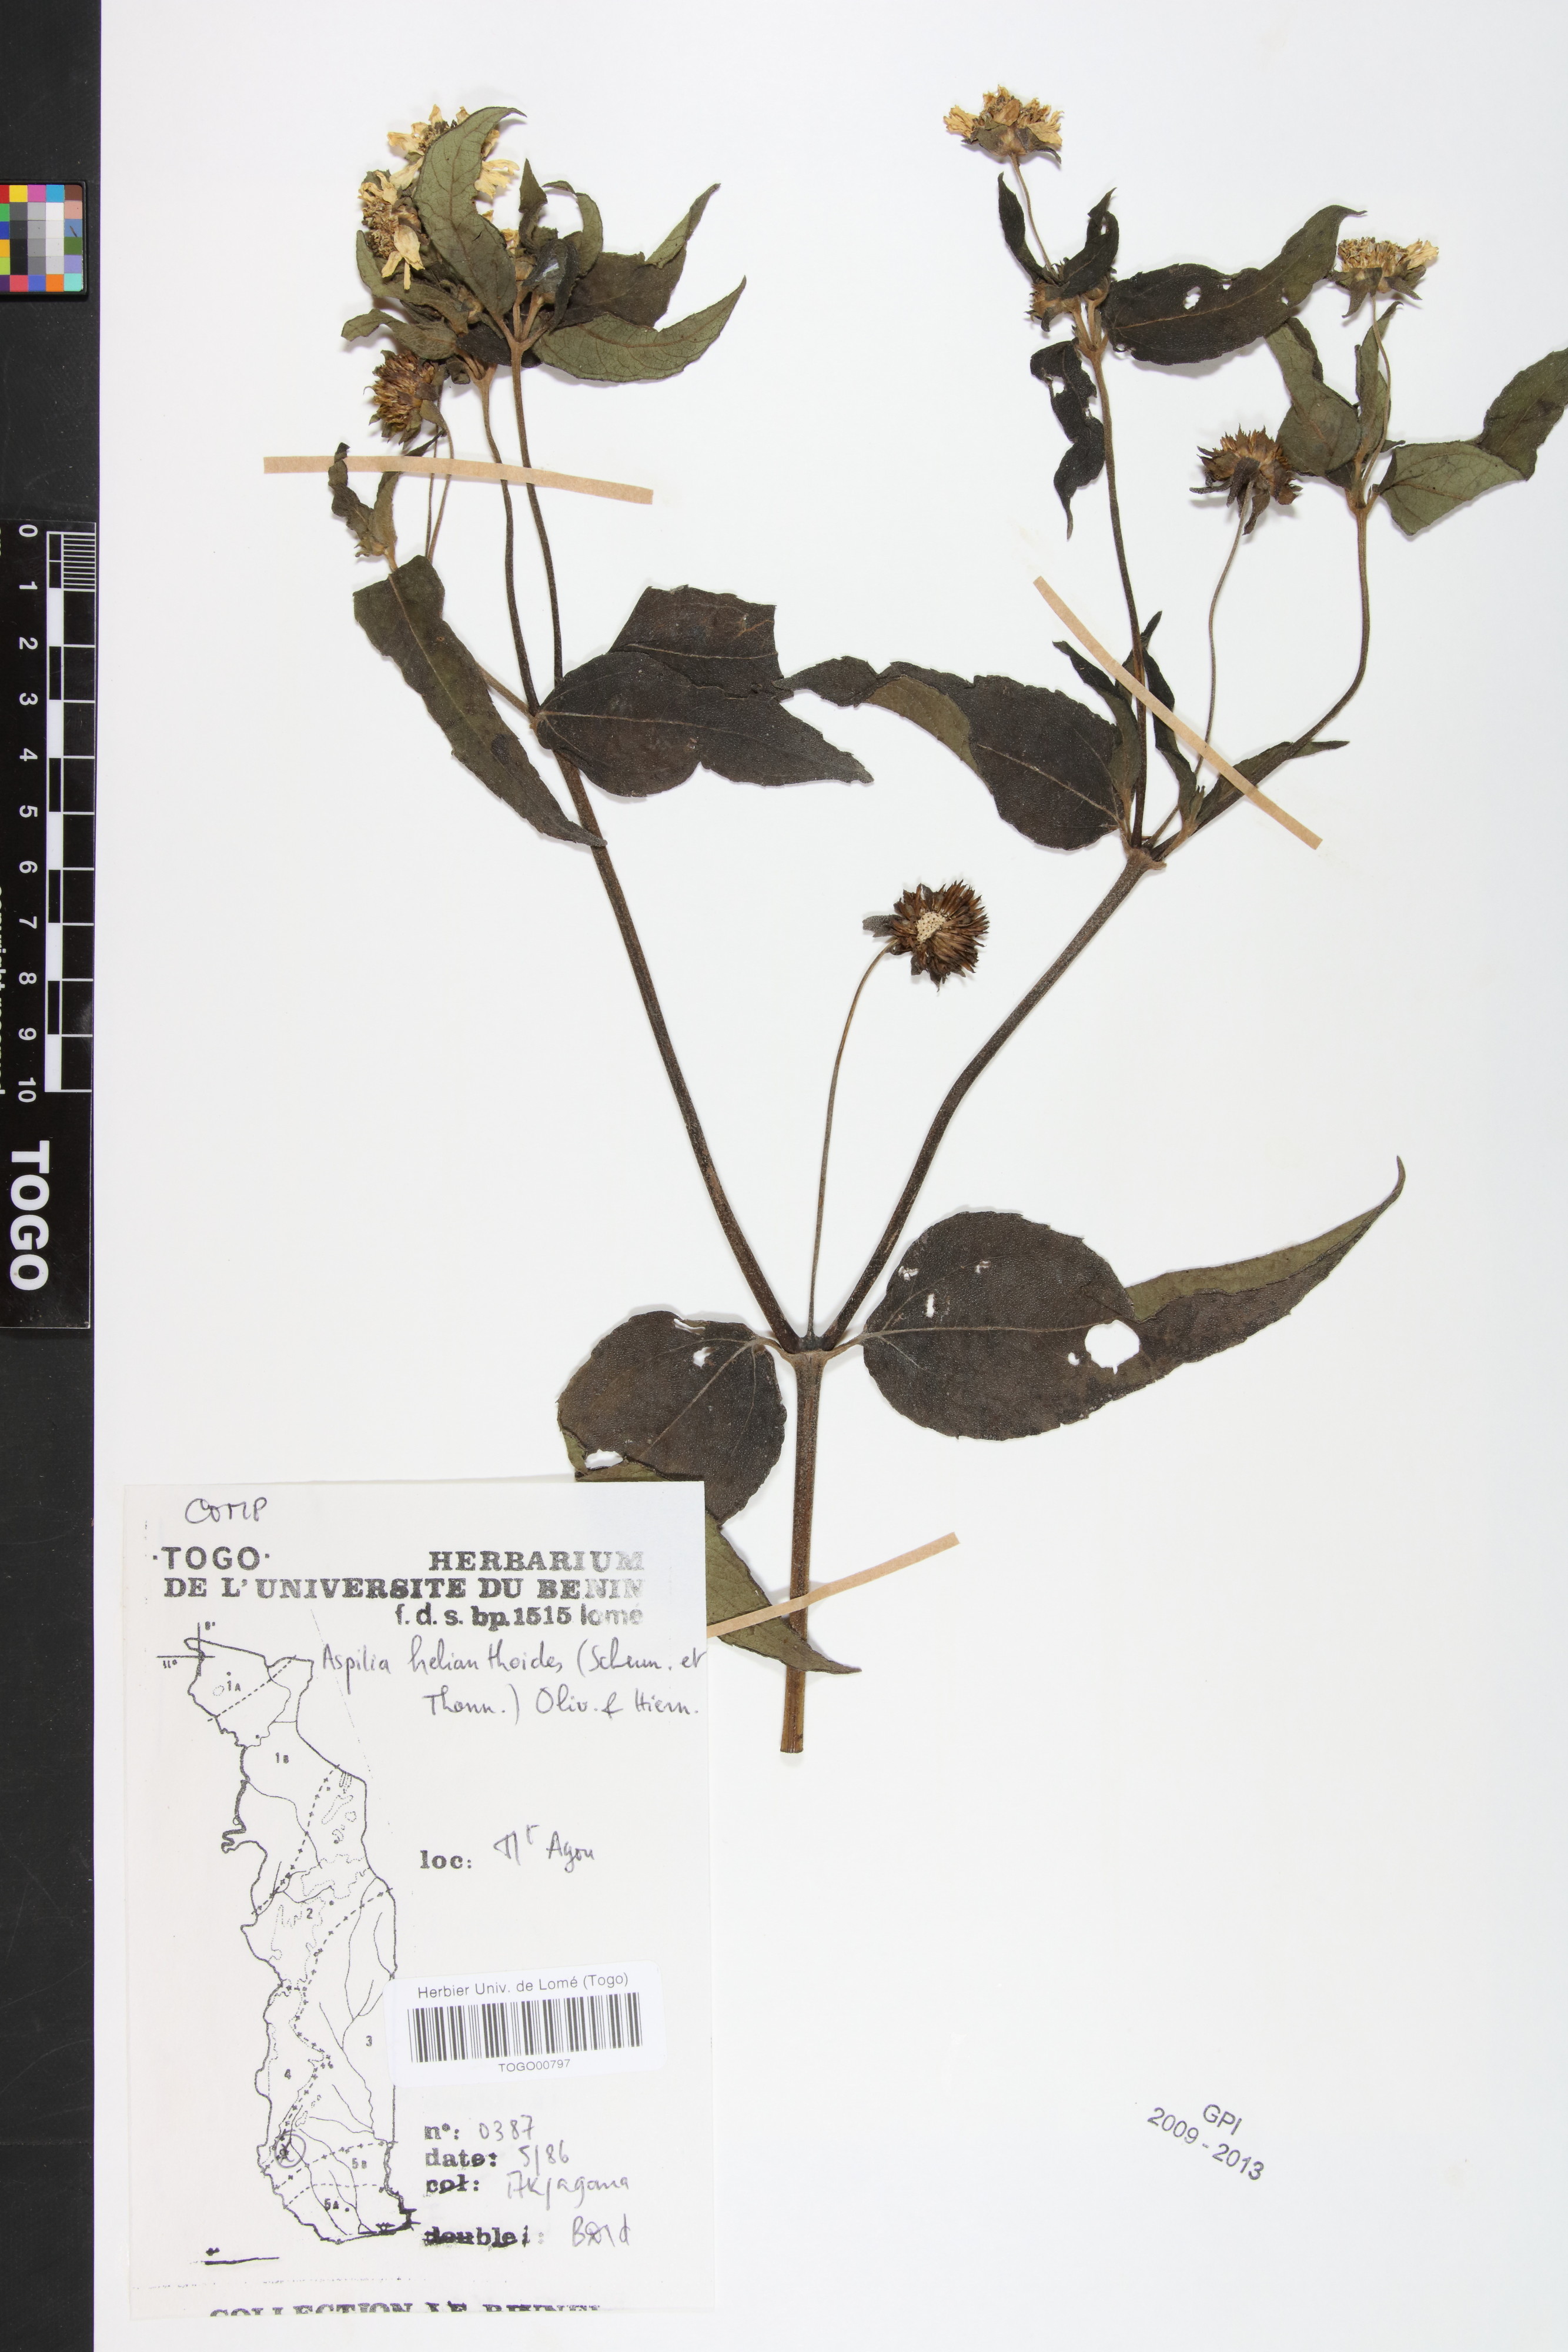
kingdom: Plantae
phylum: Tracheophyta
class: Magnoliopsida
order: Asterales
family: Asteraceae
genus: Aspilia
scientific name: Aspilia helianthoides
